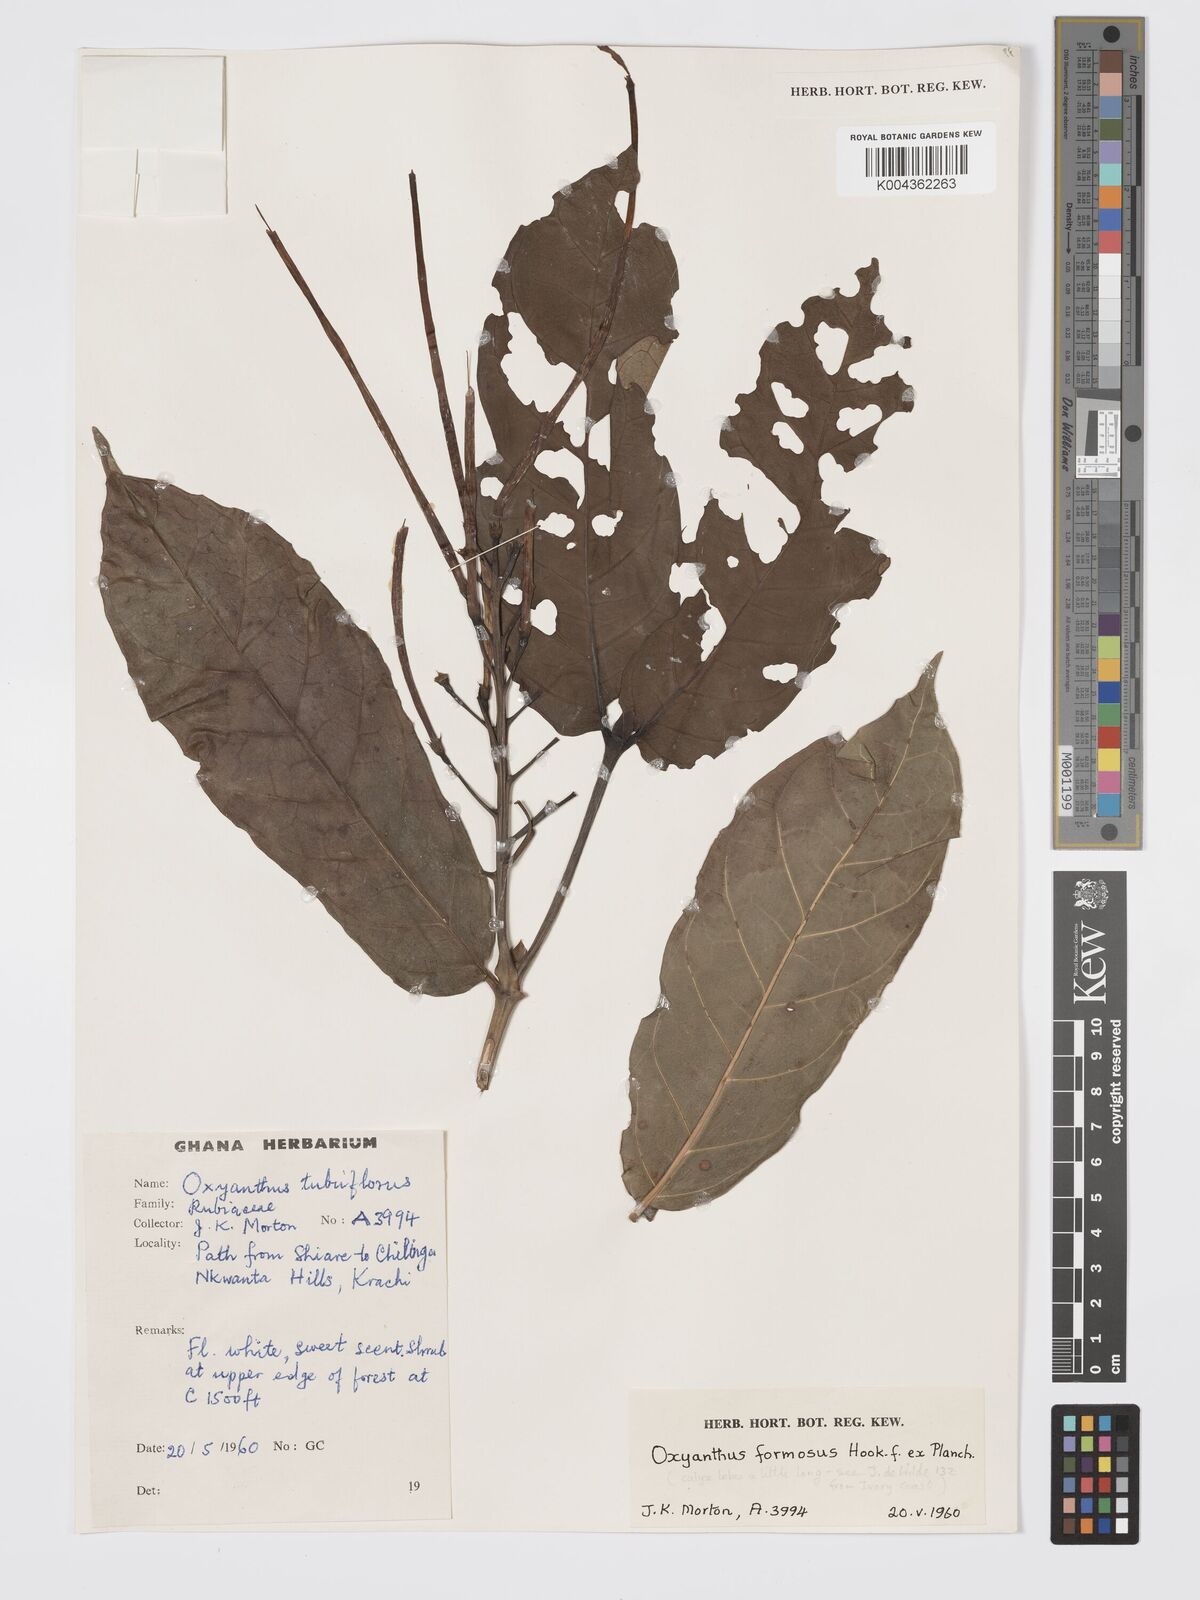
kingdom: Plantae
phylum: Tracheophyta
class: Magnoliopsida
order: Gentianales
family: Rubiaceae
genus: Oxyanthus
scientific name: Oxyanthus formosus
